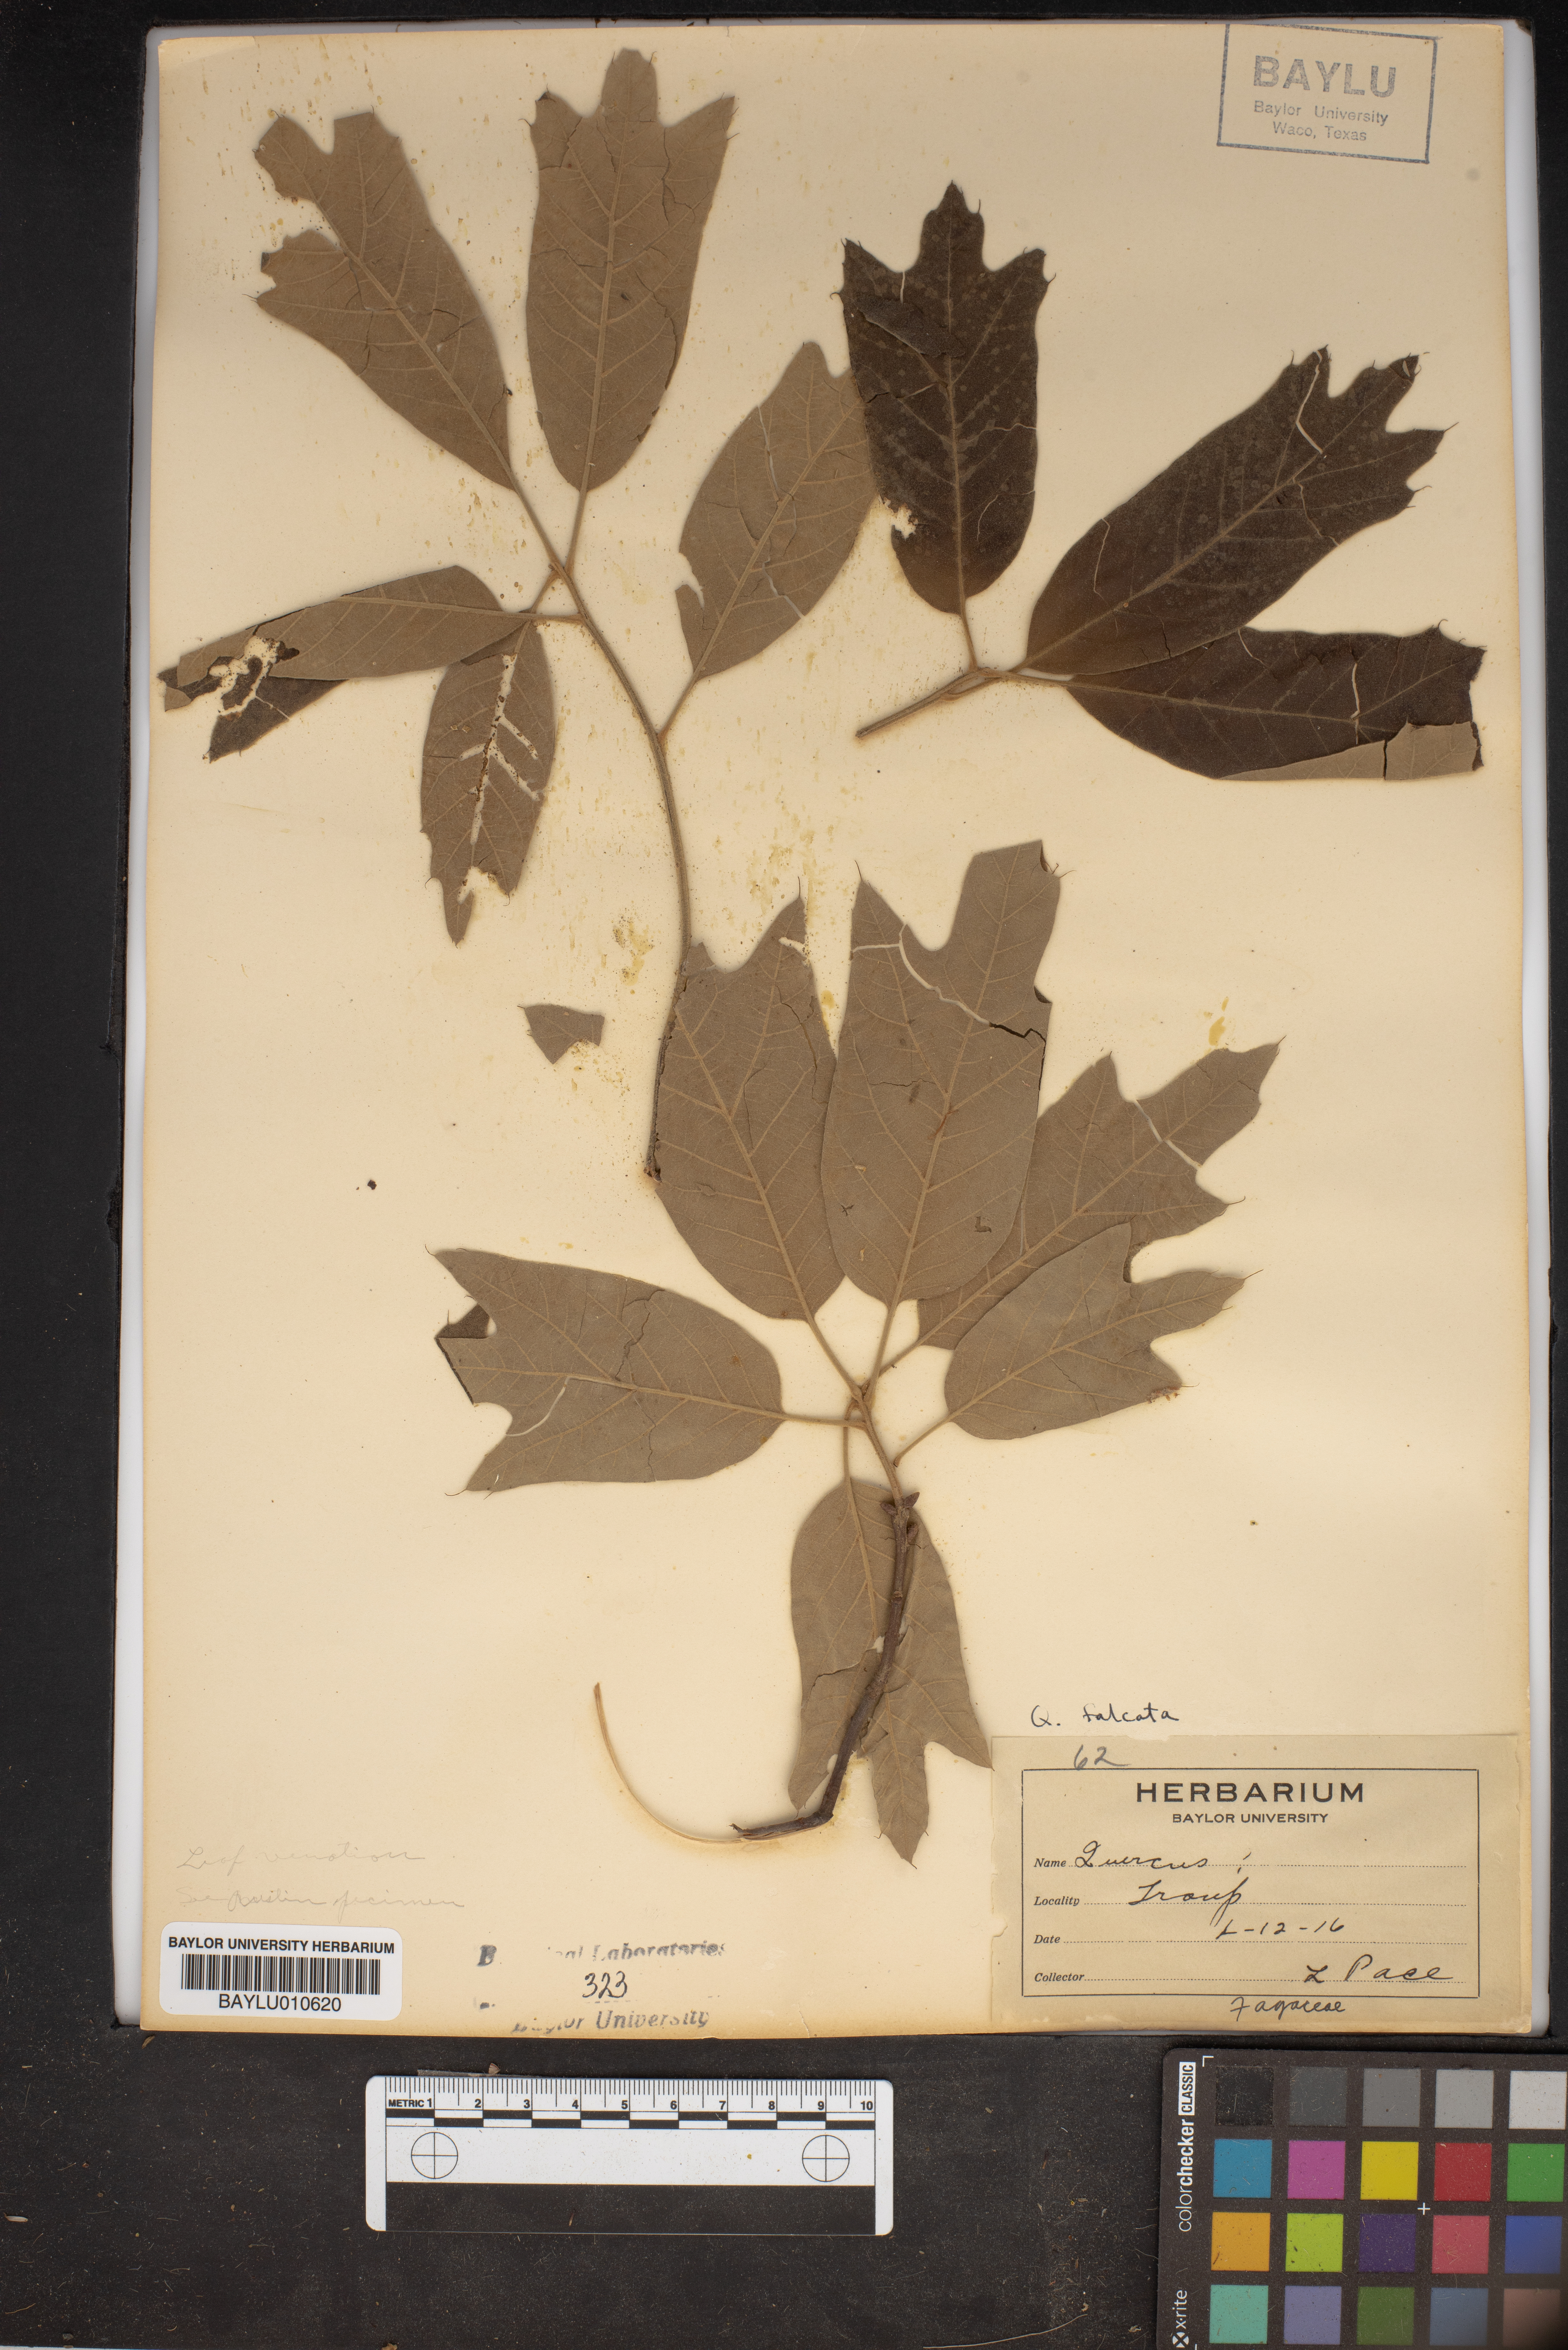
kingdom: Plantae
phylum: Tracheophyta
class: Magnoliopsida
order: Fagales
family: Fagaceae
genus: Quercus
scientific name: Quercus
